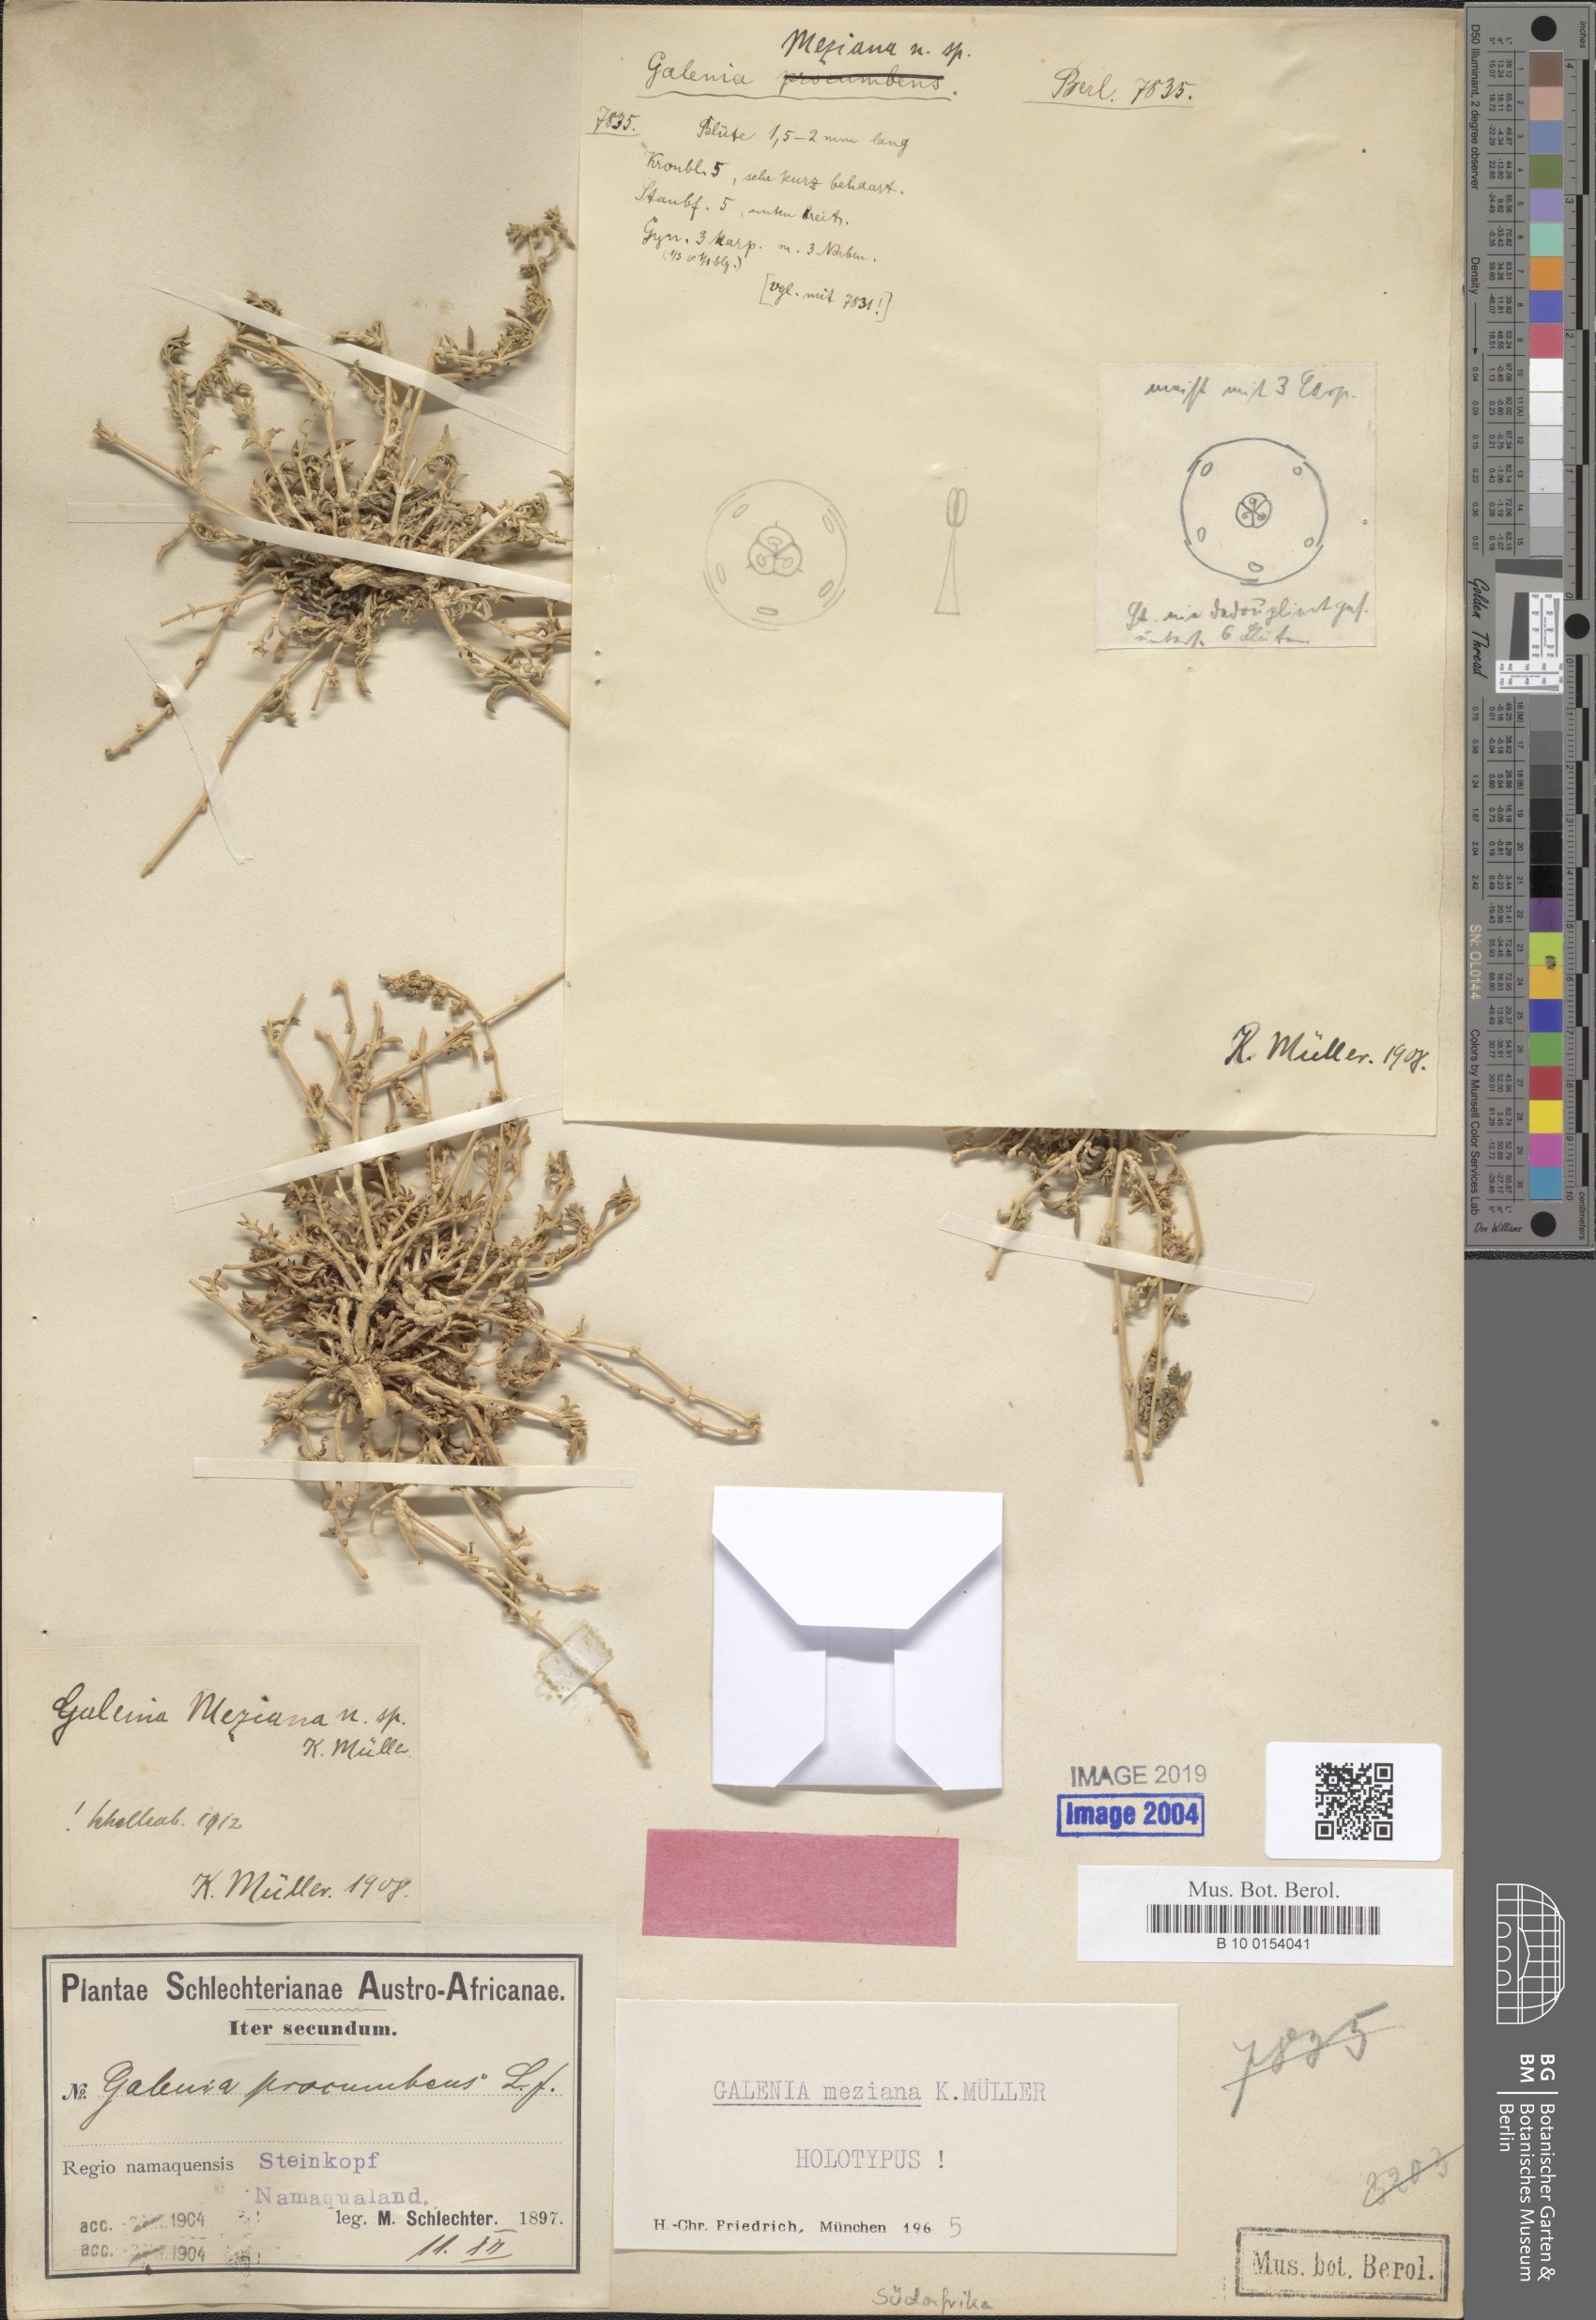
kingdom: Plantae
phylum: Tracheophyta
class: Magnoliopsida
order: Caryophyllales
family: Aizoaceae
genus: Aizoon
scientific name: Aizoon mezianum
